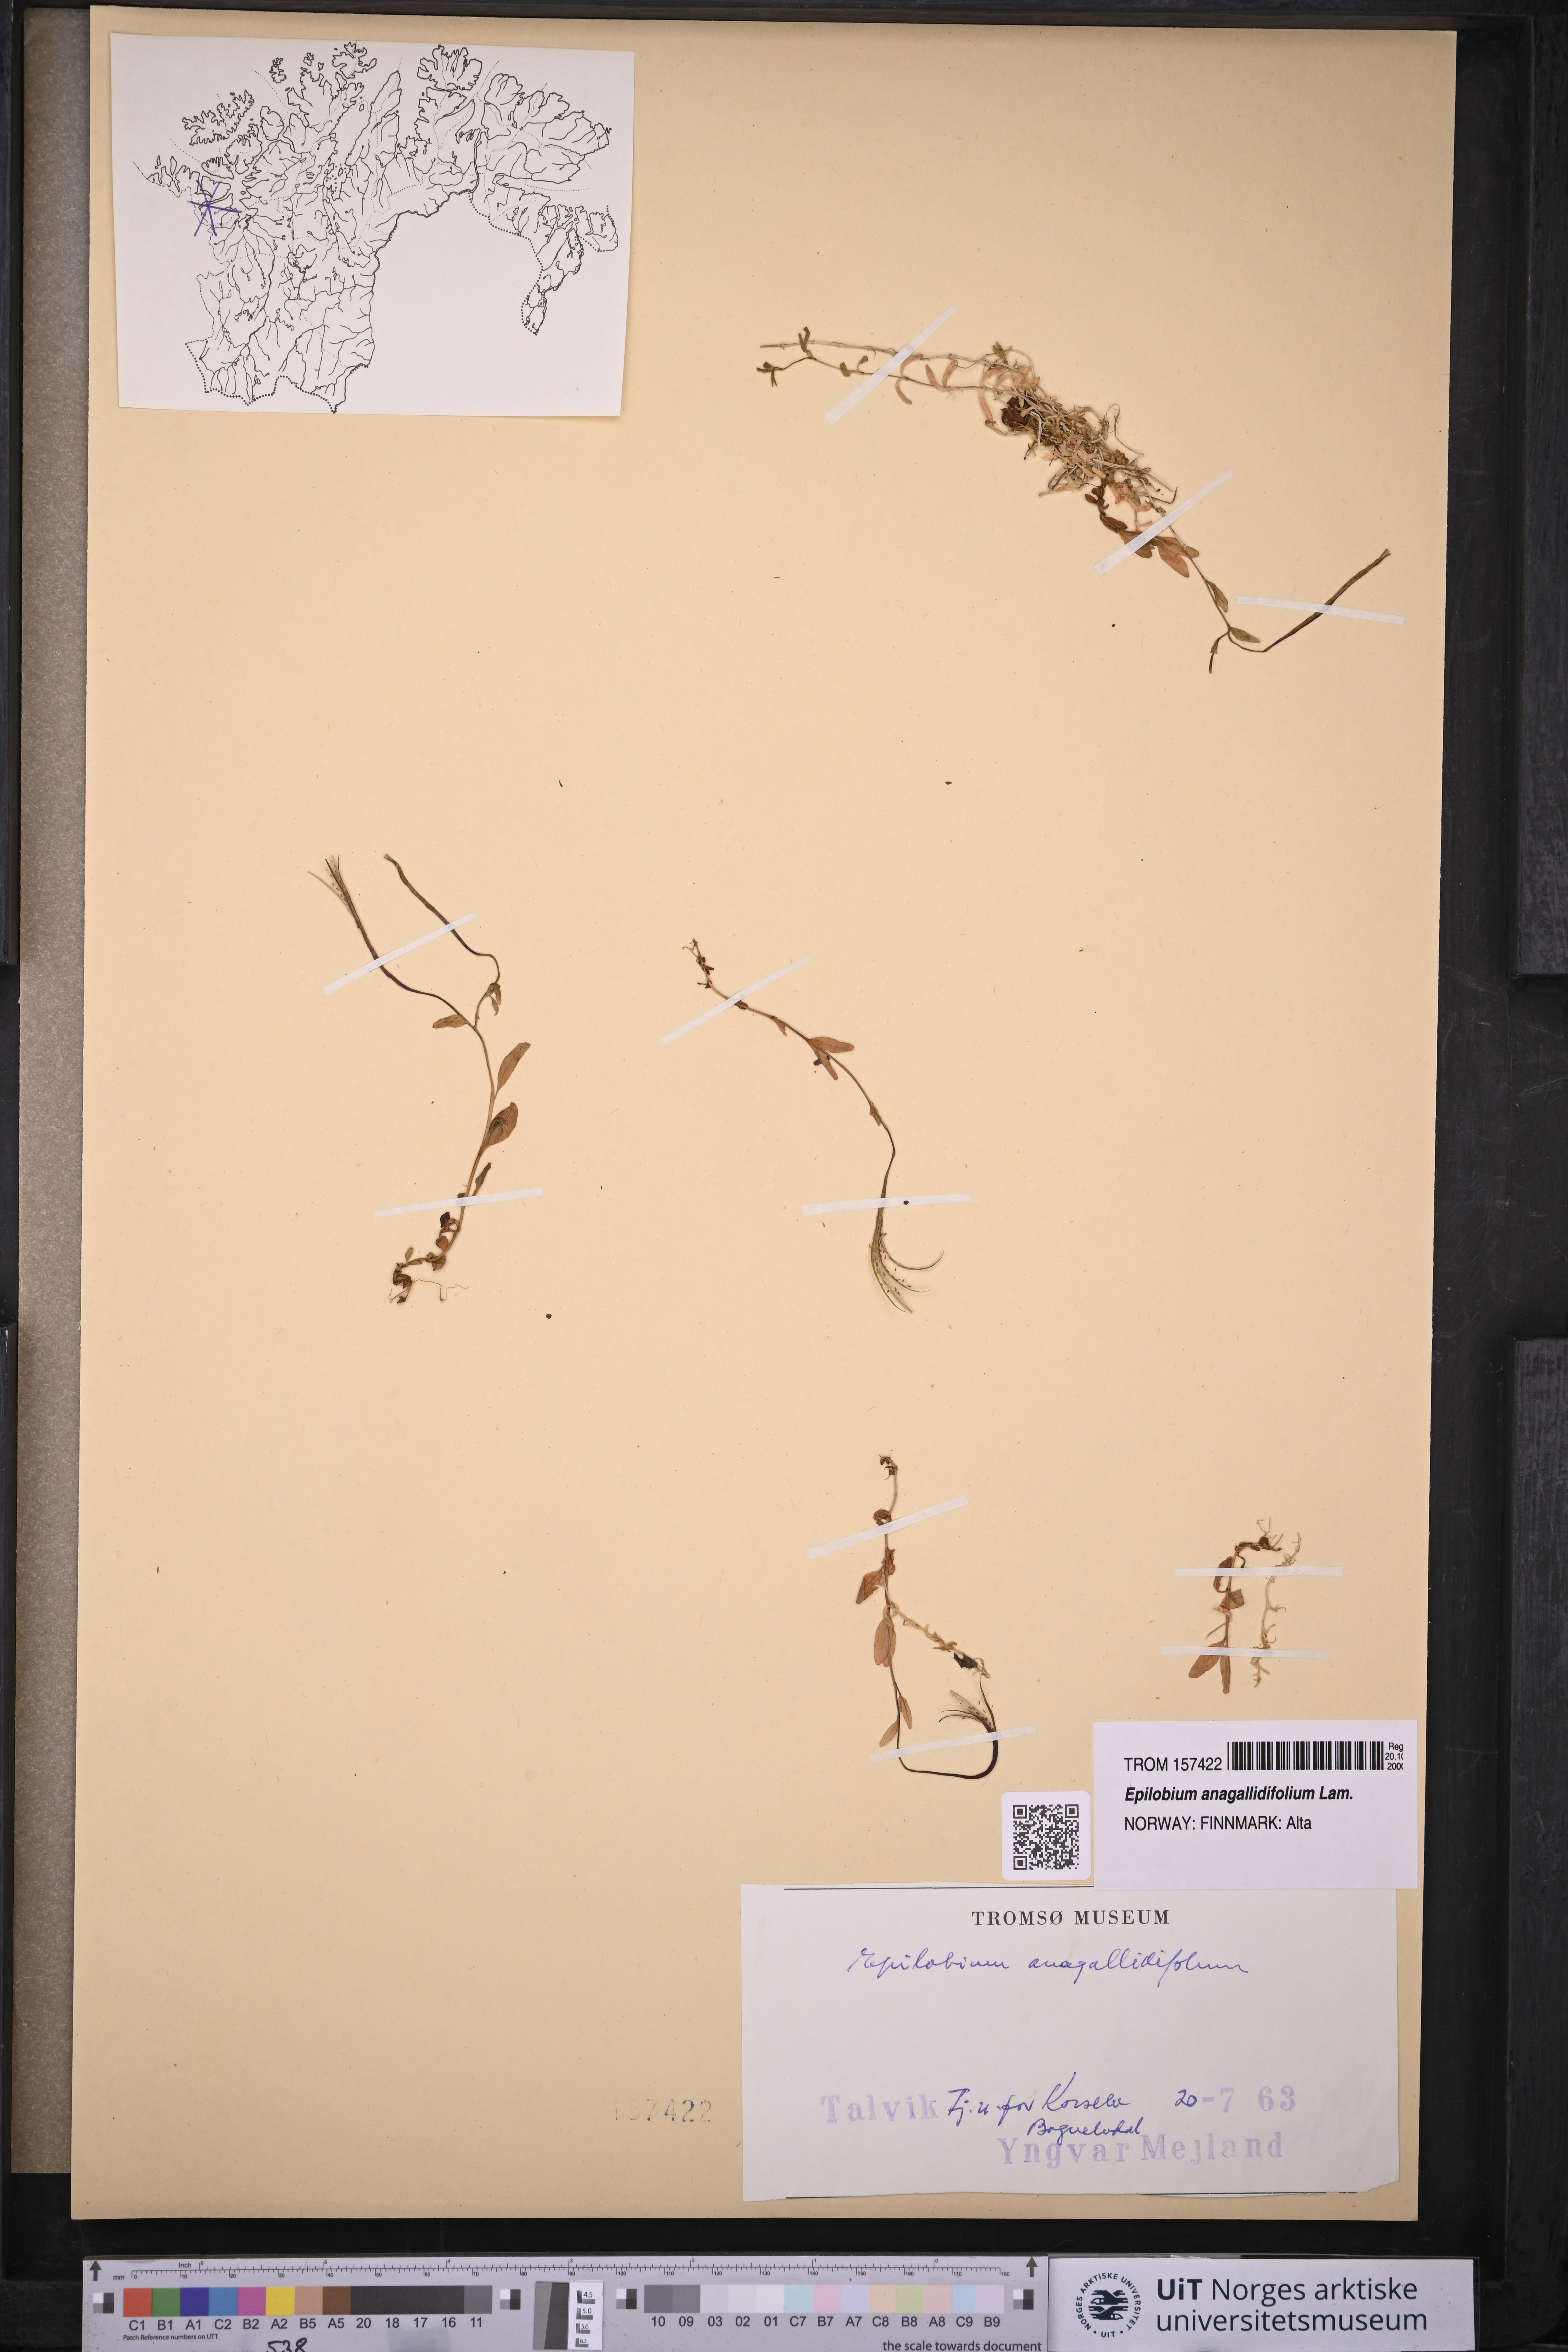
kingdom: Plantae
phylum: Tracheophyta
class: Magnoliopsida
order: Myrtales
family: Onagraceae
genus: Epilobium
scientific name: Epilobium anagallidifolium
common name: Alpine willowherb
